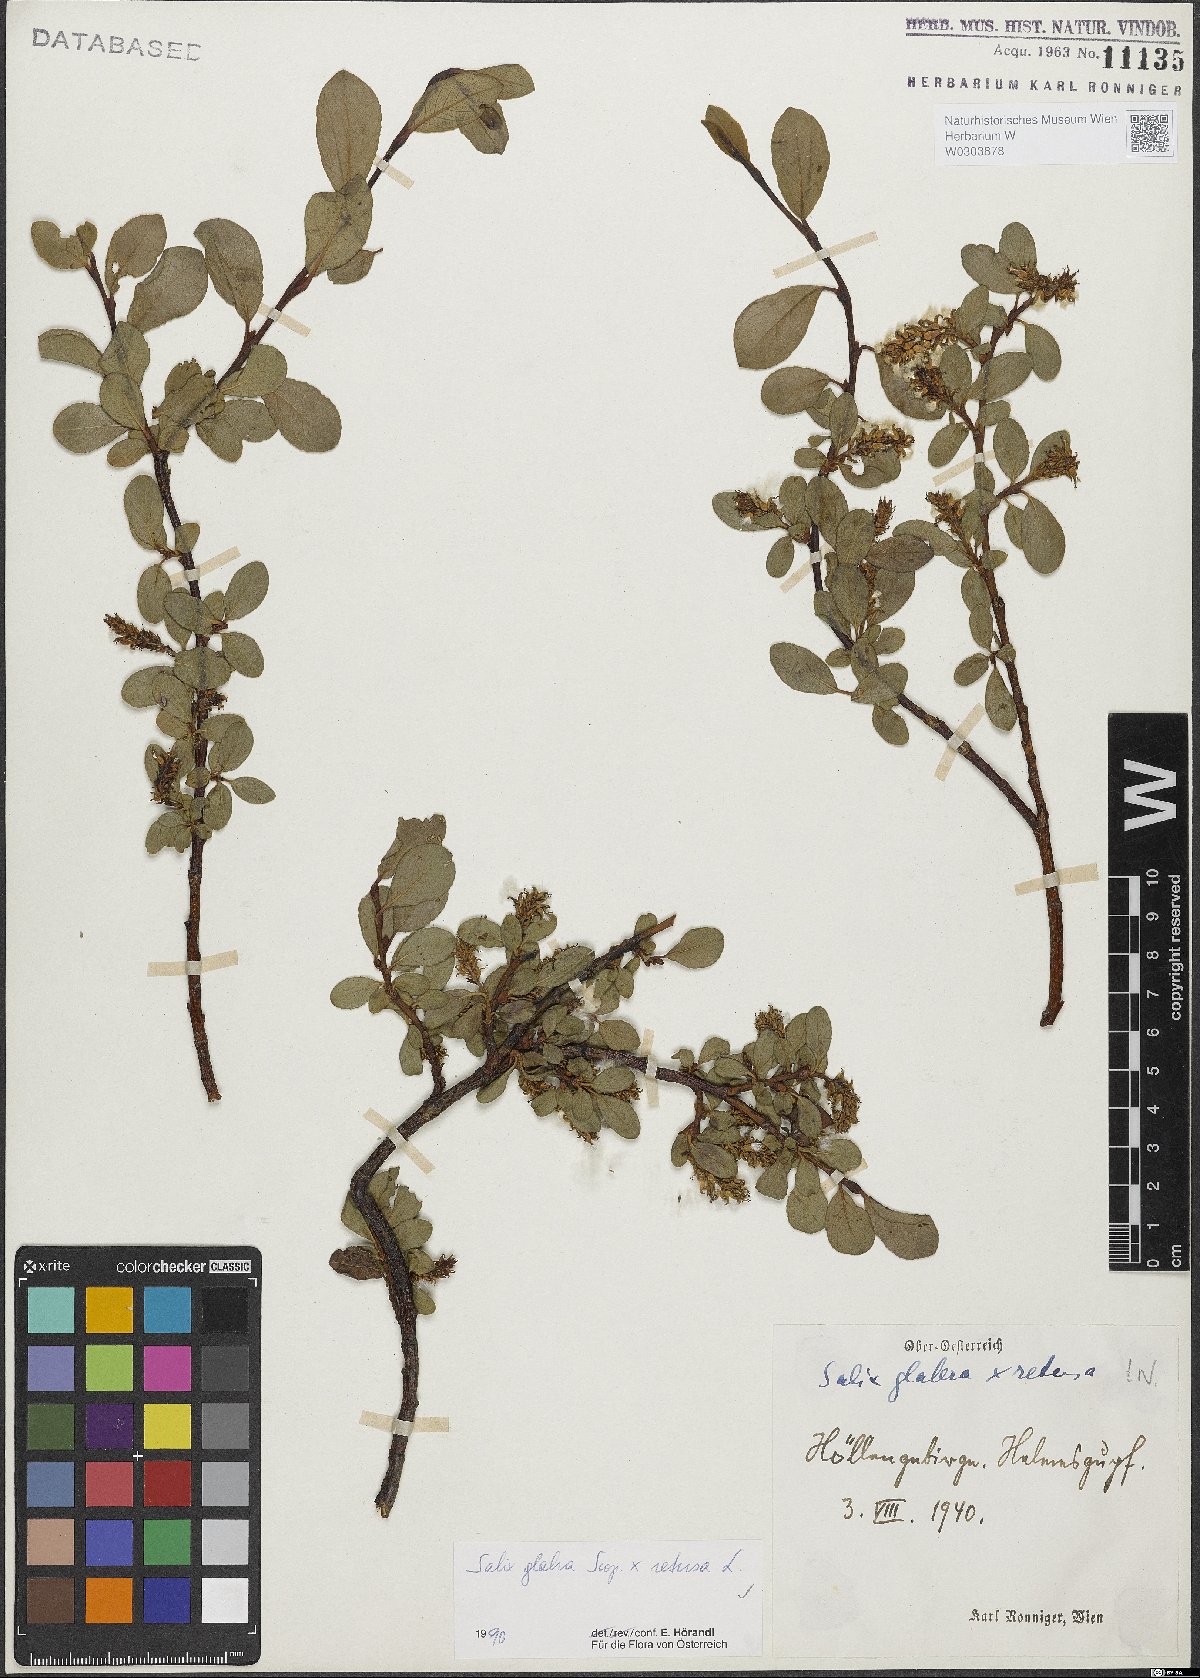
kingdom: Plantae
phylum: Tracheophyta
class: Magnoliopsida
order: Malpighiales
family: Salicaceae
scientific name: Salicaceae
